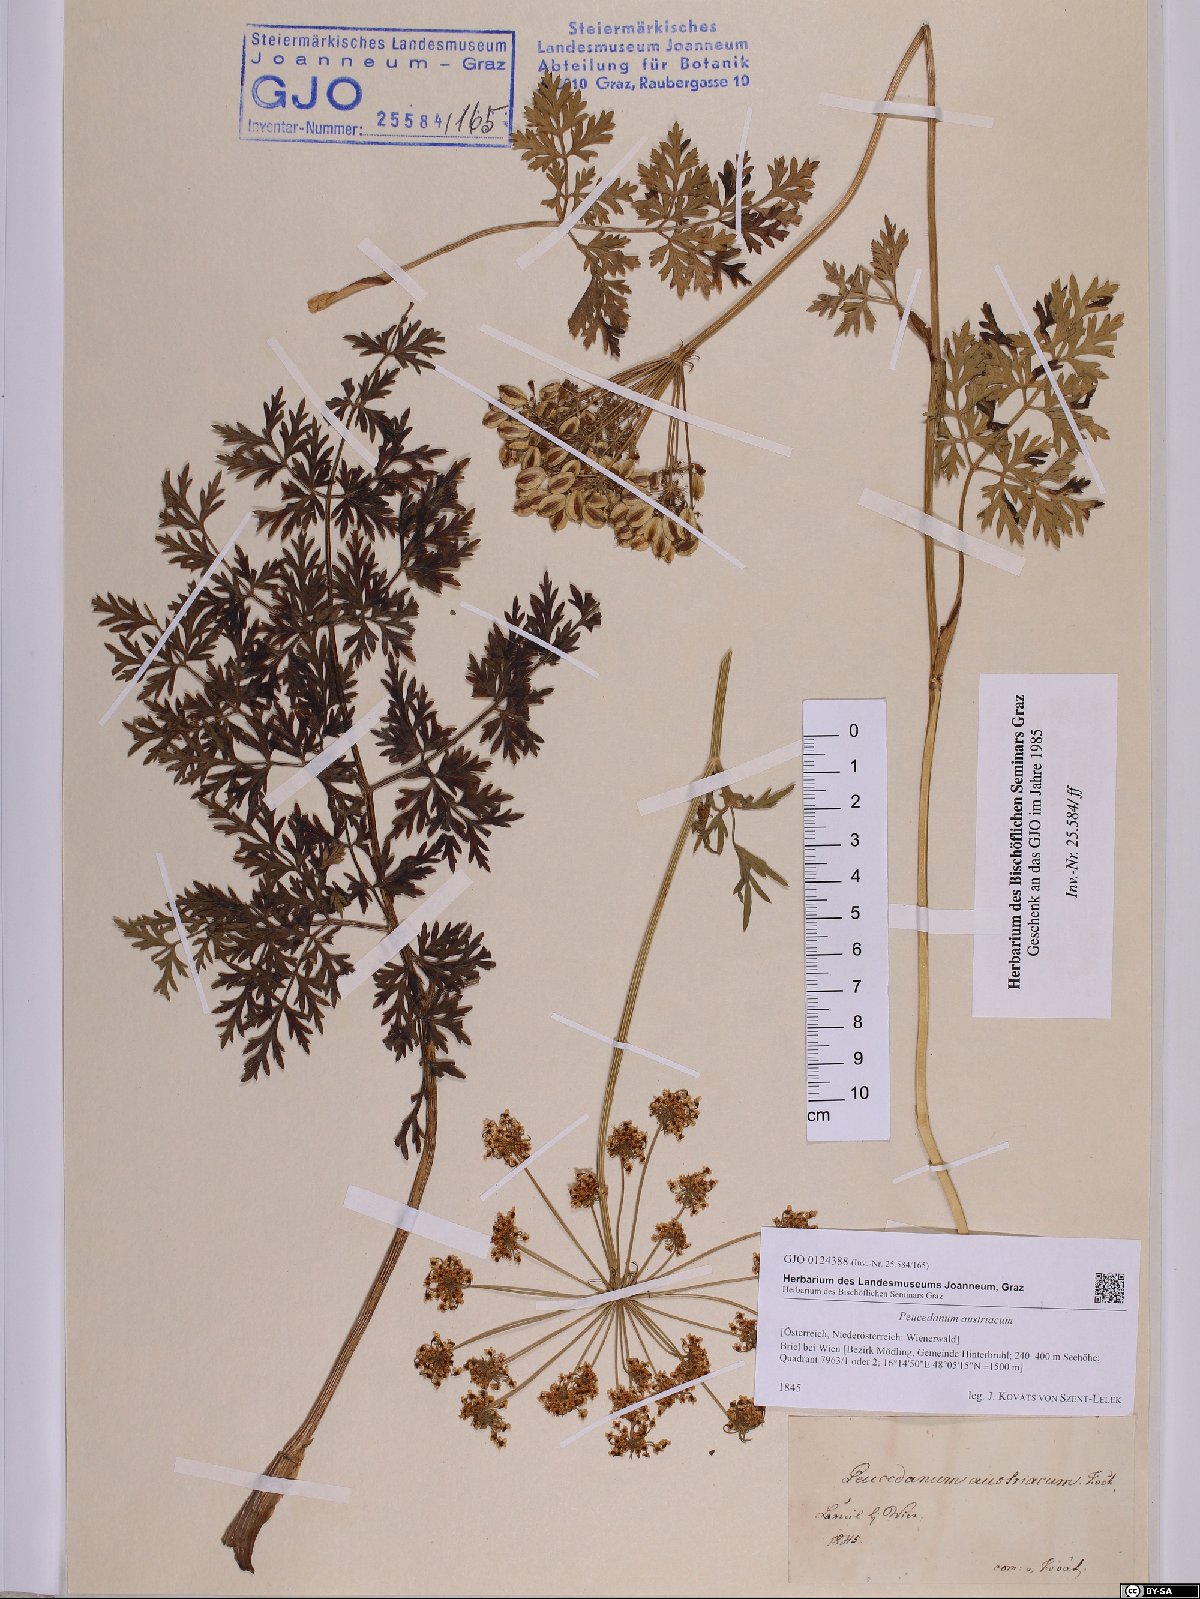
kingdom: Plantae
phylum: Tracheophyta
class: Magnoliopsida
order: Apiales
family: Apiaceae
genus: Peucedanum
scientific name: Peucedanum austriacum
